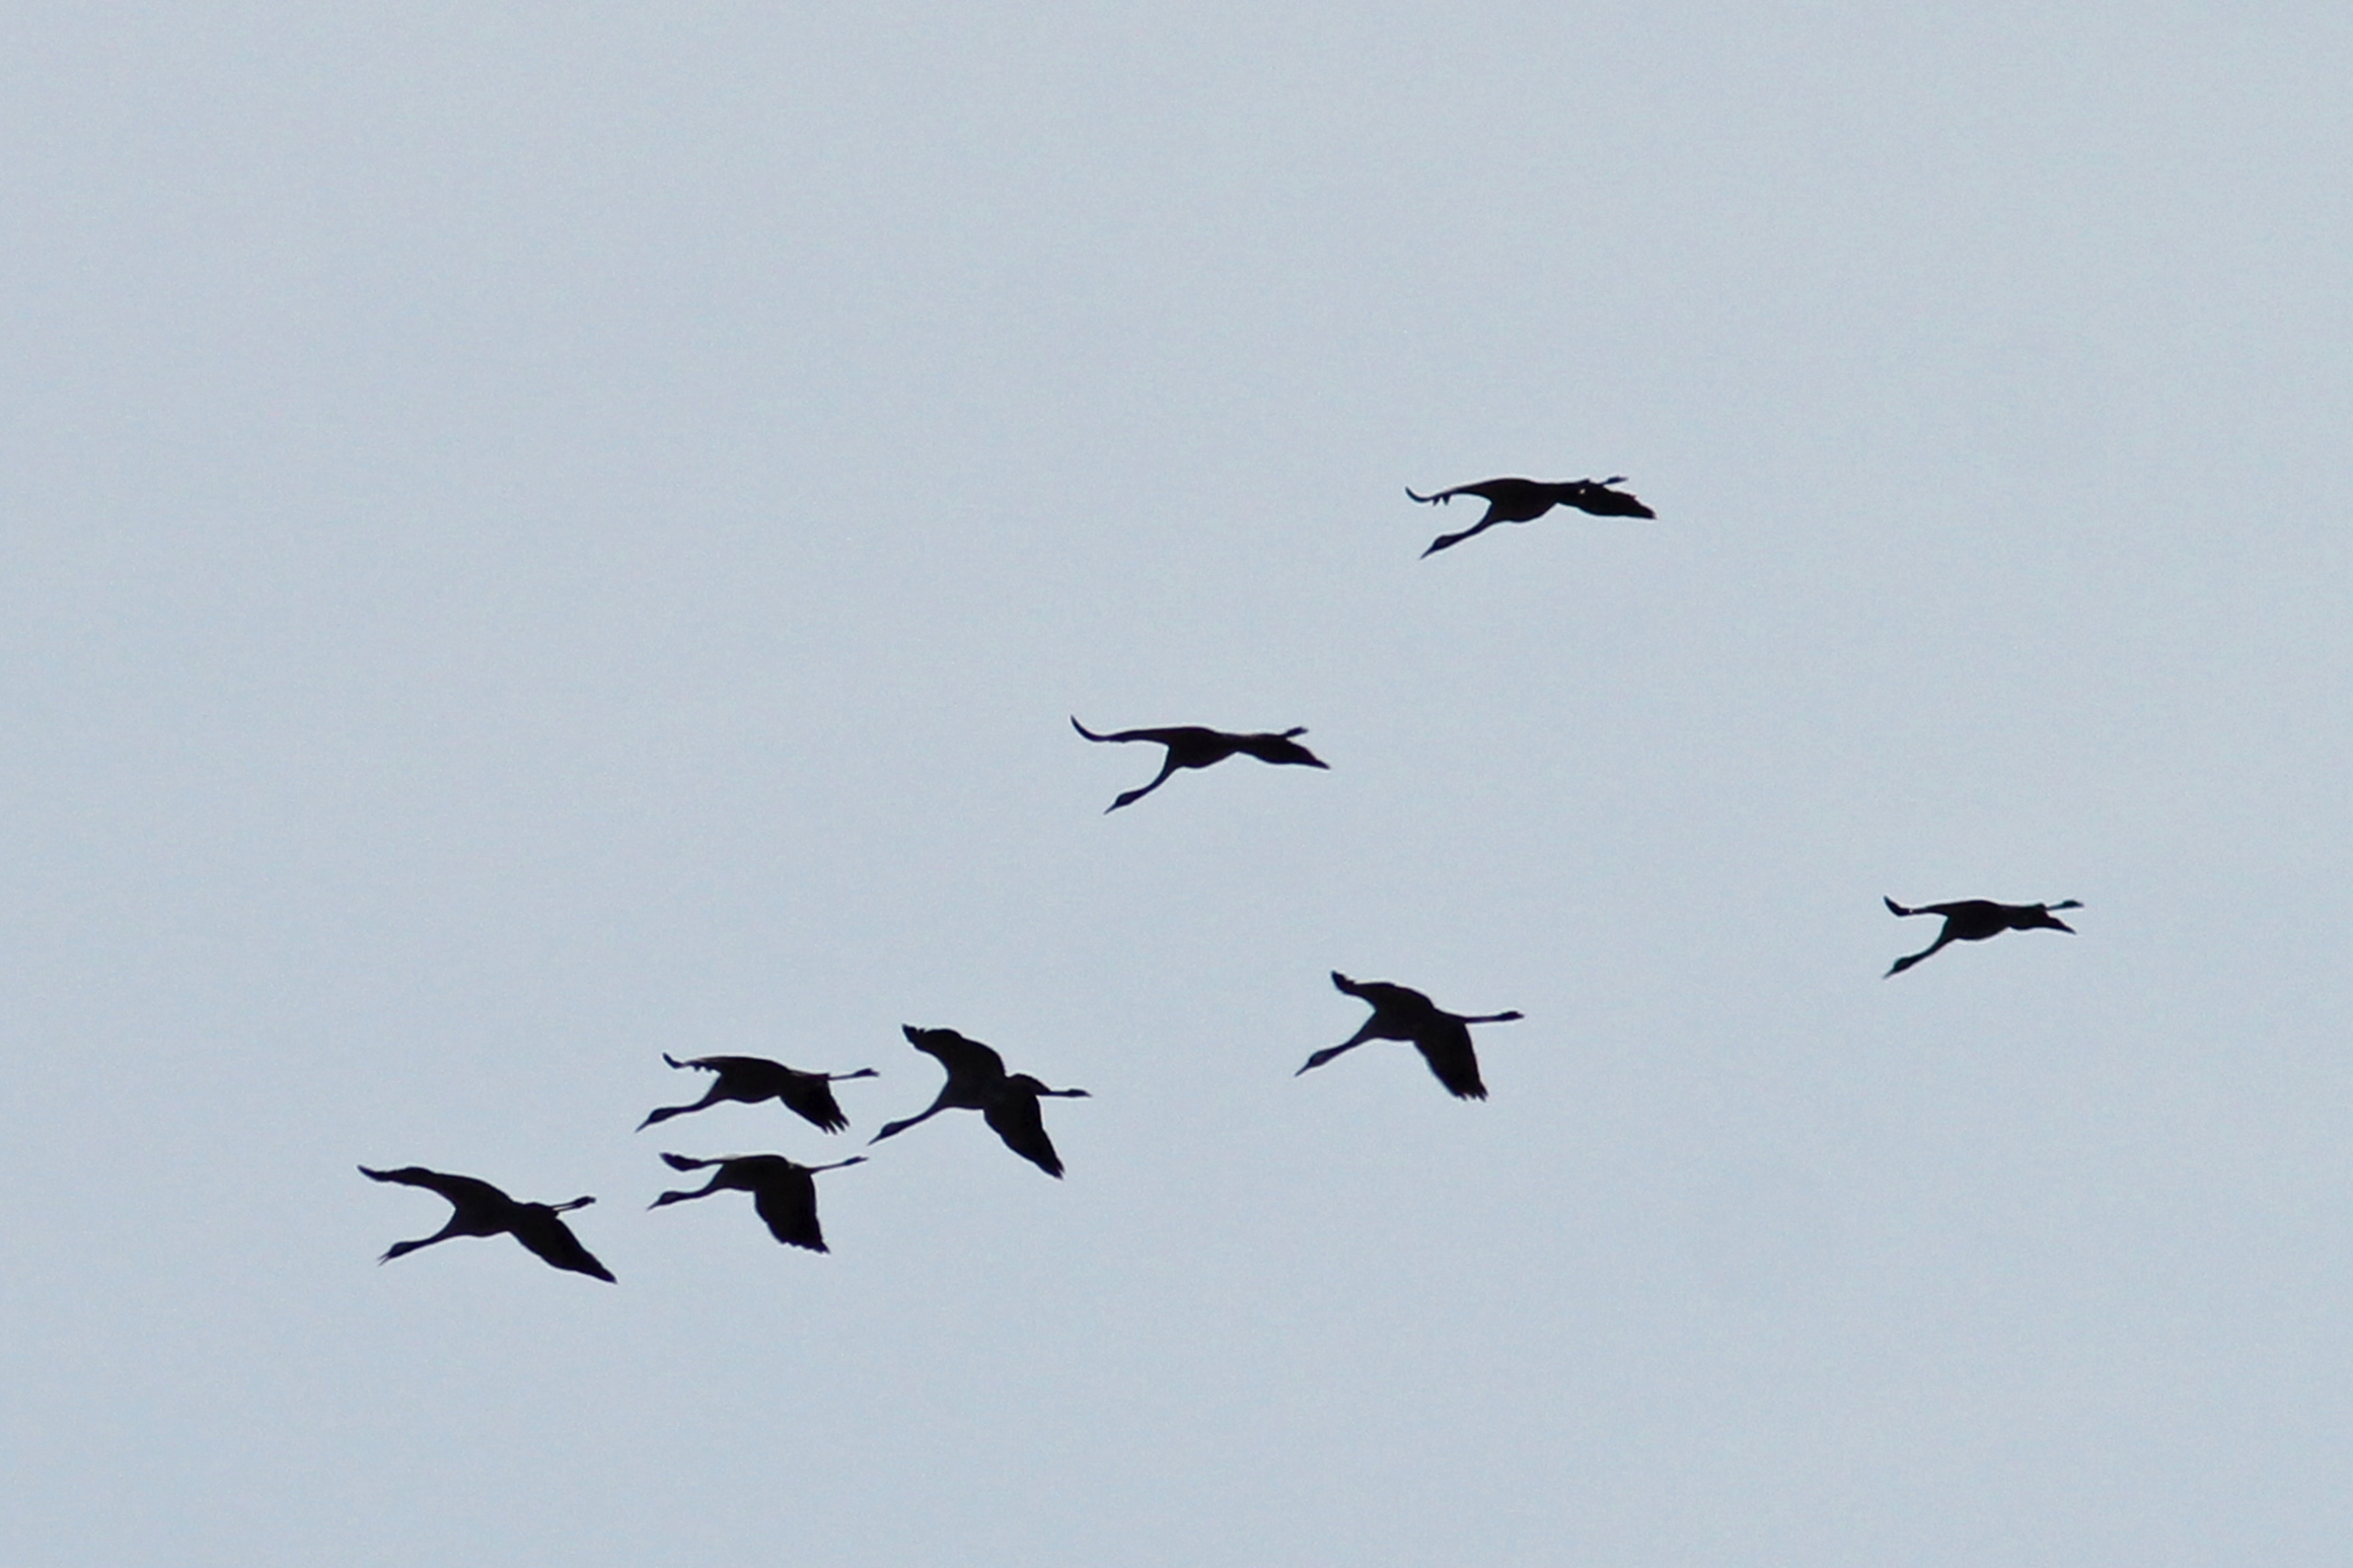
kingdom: Animalia
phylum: Chordata
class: Aves
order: Gruiformes
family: Gruidae
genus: Grus
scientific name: Grus grus
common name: Trane
